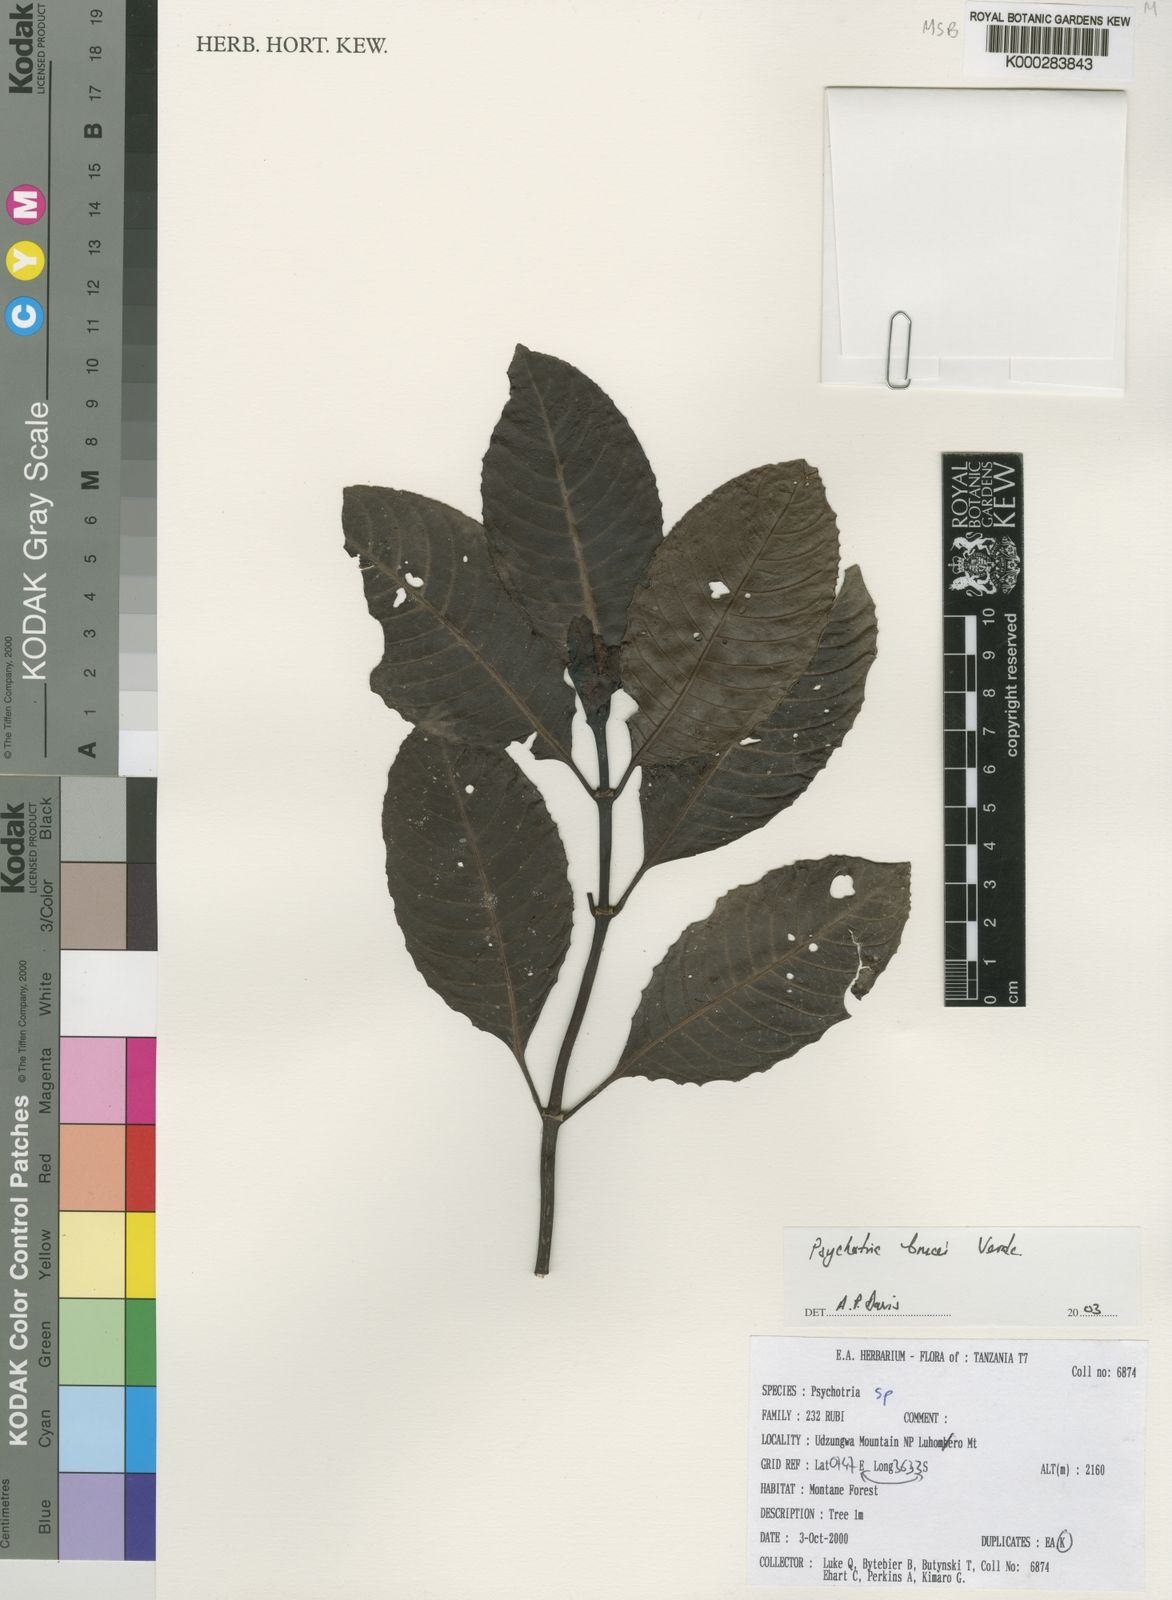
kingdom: Plantae
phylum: Tracheophyta
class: Magnoliopsida
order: Gentianales
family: Rubiaceae
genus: Psychotria
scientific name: Psychotria brucei
